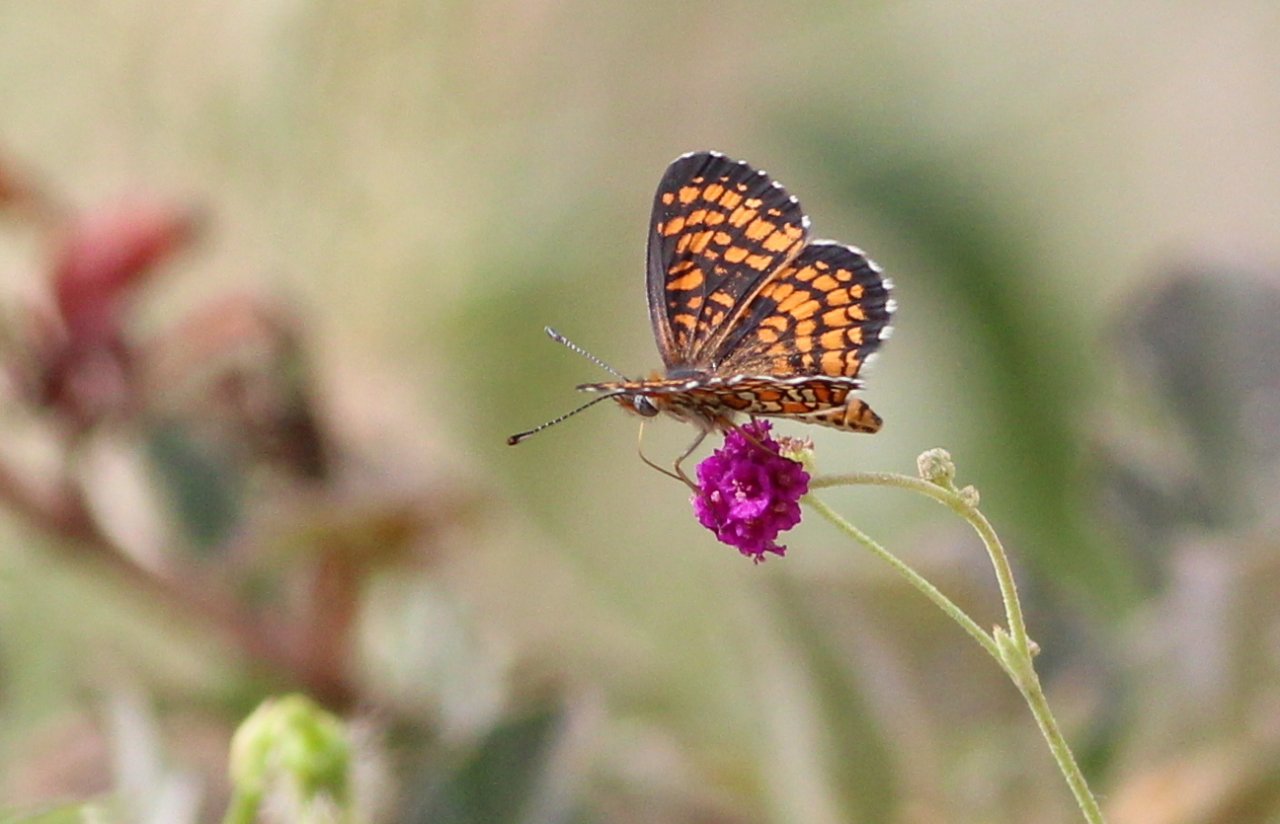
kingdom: Animalia
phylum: Arthropoda
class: Insecta
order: Lepidoptera
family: Nymphalidae
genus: Texola
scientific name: Texola
